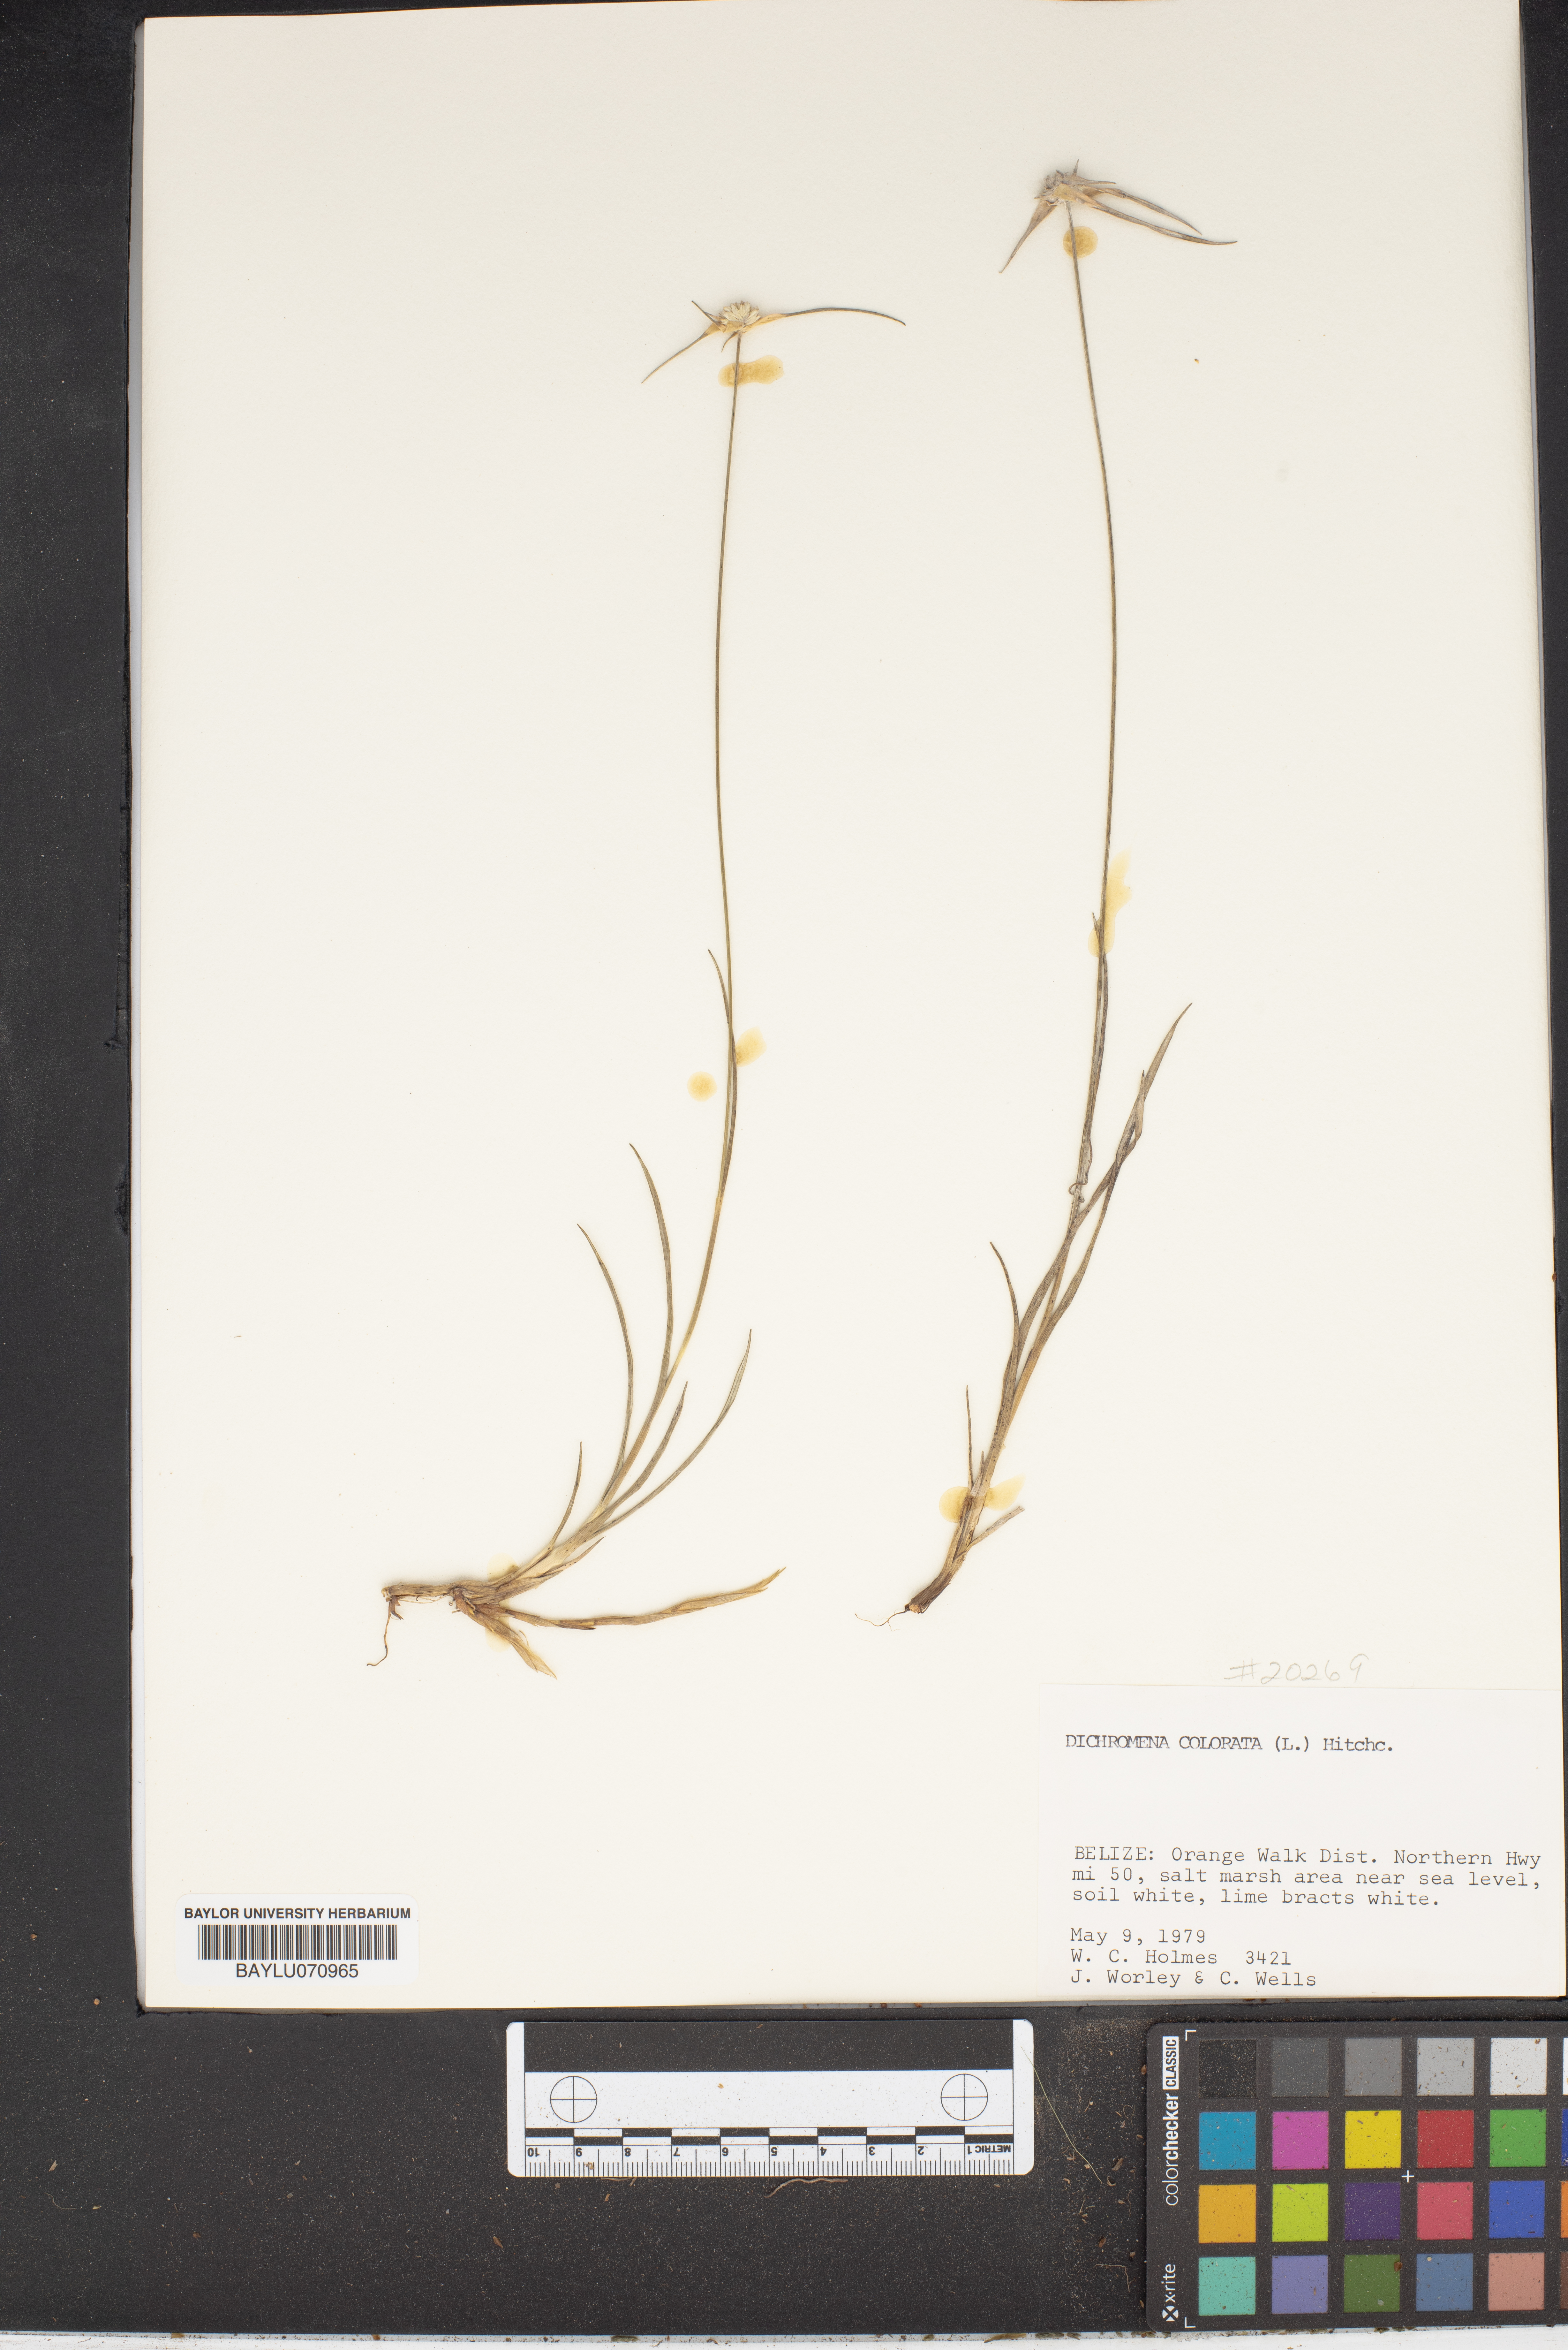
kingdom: Plantae
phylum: Tracheophyta
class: Liliopsida
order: Poales
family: Cyperaceae
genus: Rhynchospora
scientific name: Rhynchospora colorata
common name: Star sedge
